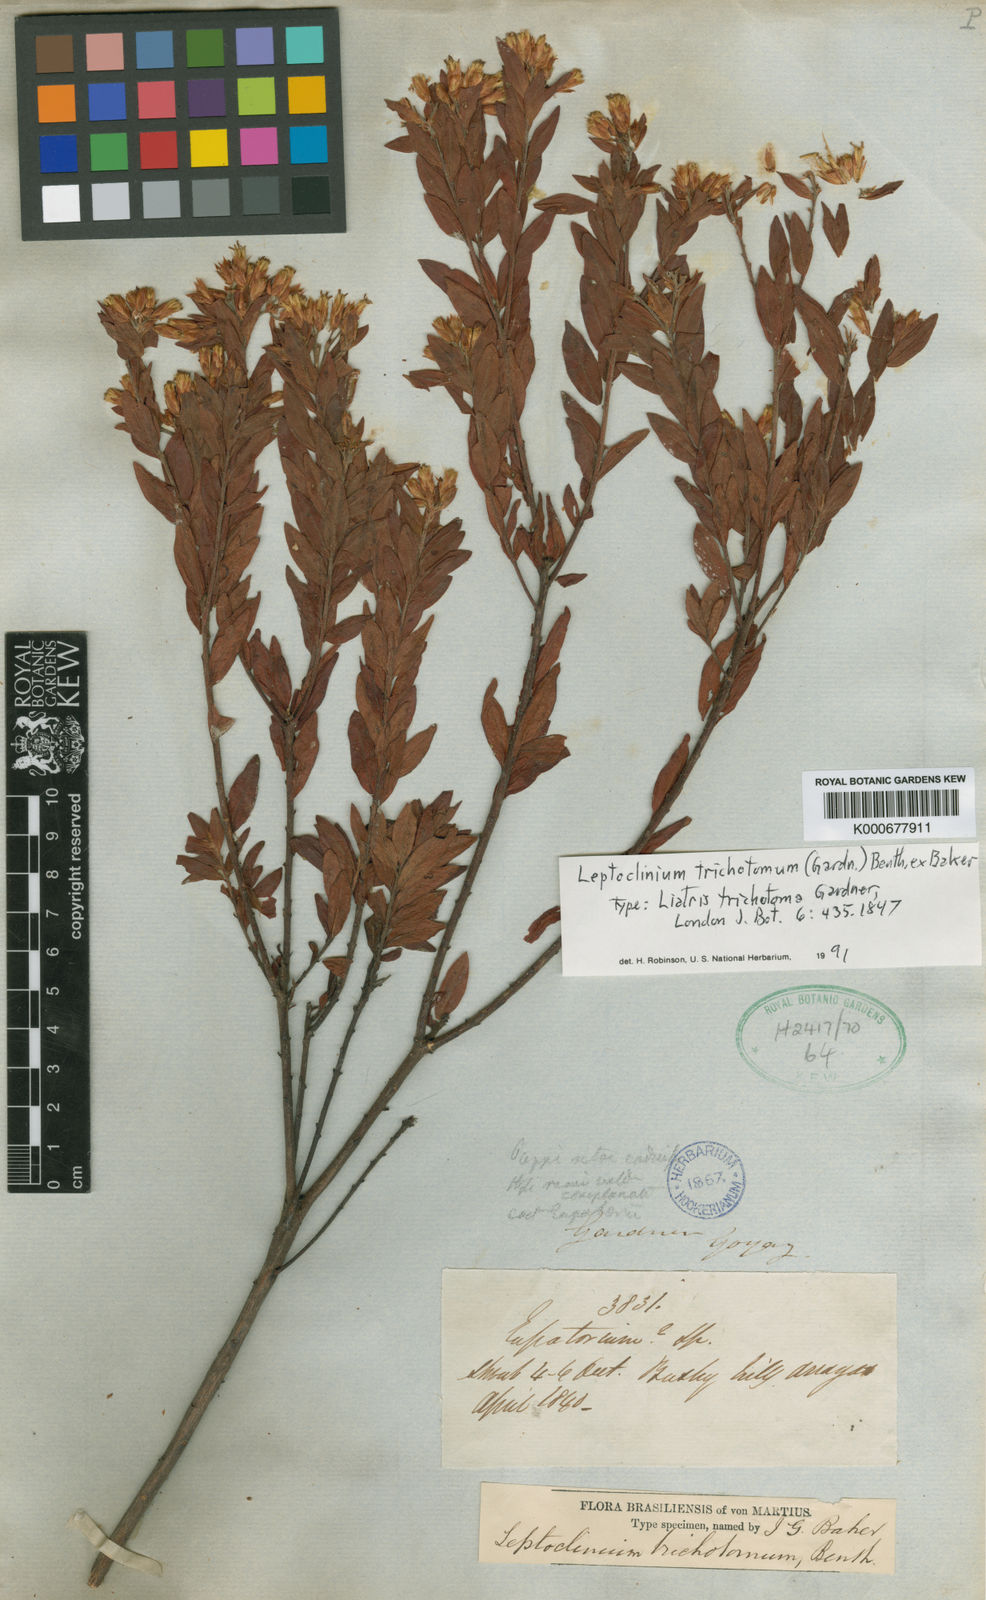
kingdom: Plantae
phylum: Tracheophyta
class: Magnoliopsida
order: Asterales
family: Asteraceae
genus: Leptoclinium
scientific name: Leptoclinium
